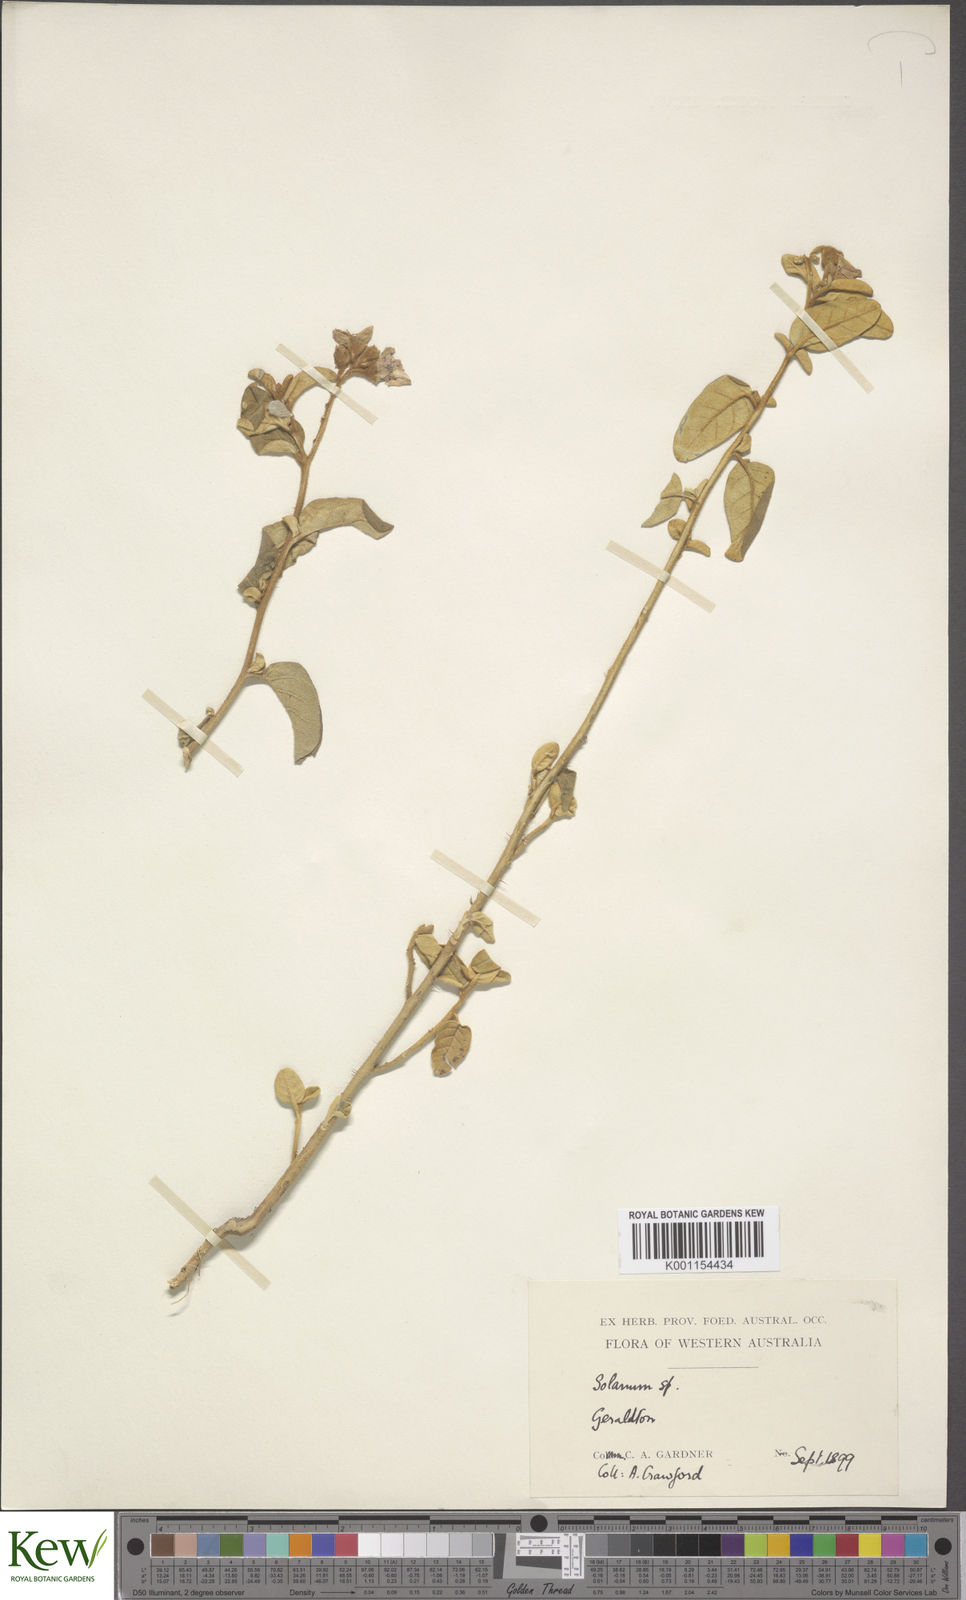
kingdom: Plantae
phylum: Tracheophyta
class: Magnoliopsida
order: Solanales
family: Solanaceae
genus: Solanum
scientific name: Solanum oldfieldii
